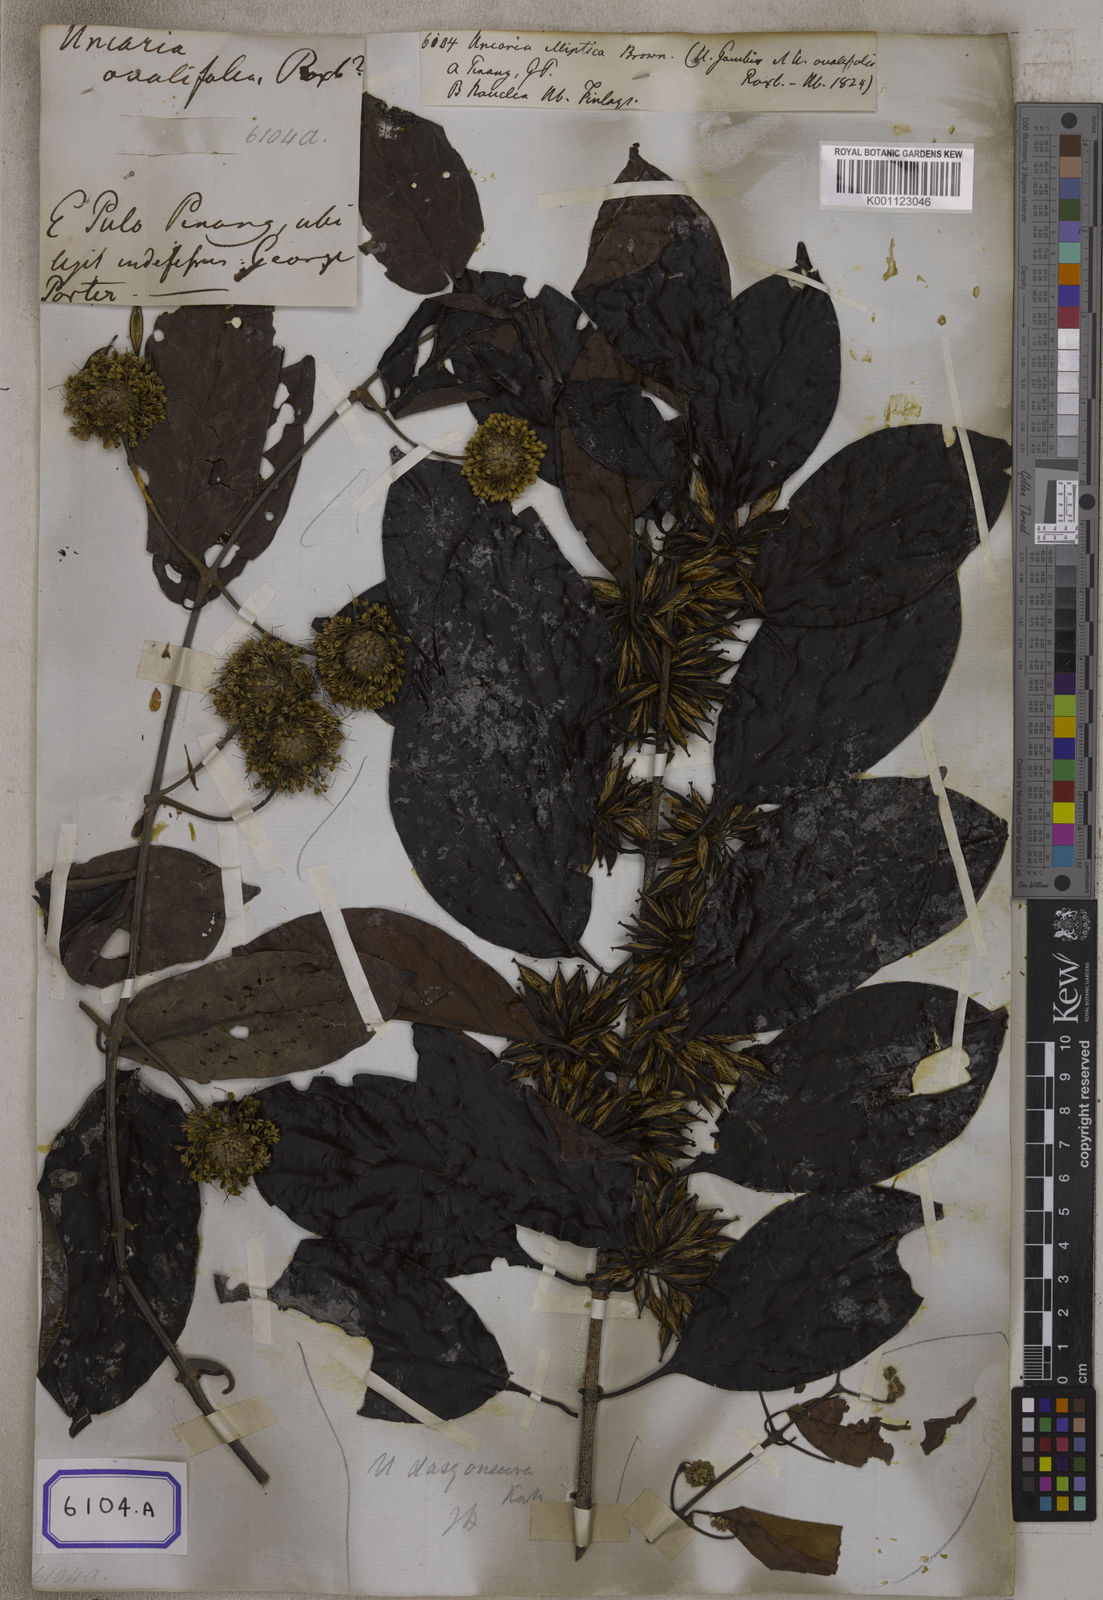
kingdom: Plantae
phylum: Tracheophyta
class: Magnoliopsida
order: Gentianales
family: Rubiaceae
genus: Uncaria
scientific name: Uncaria
